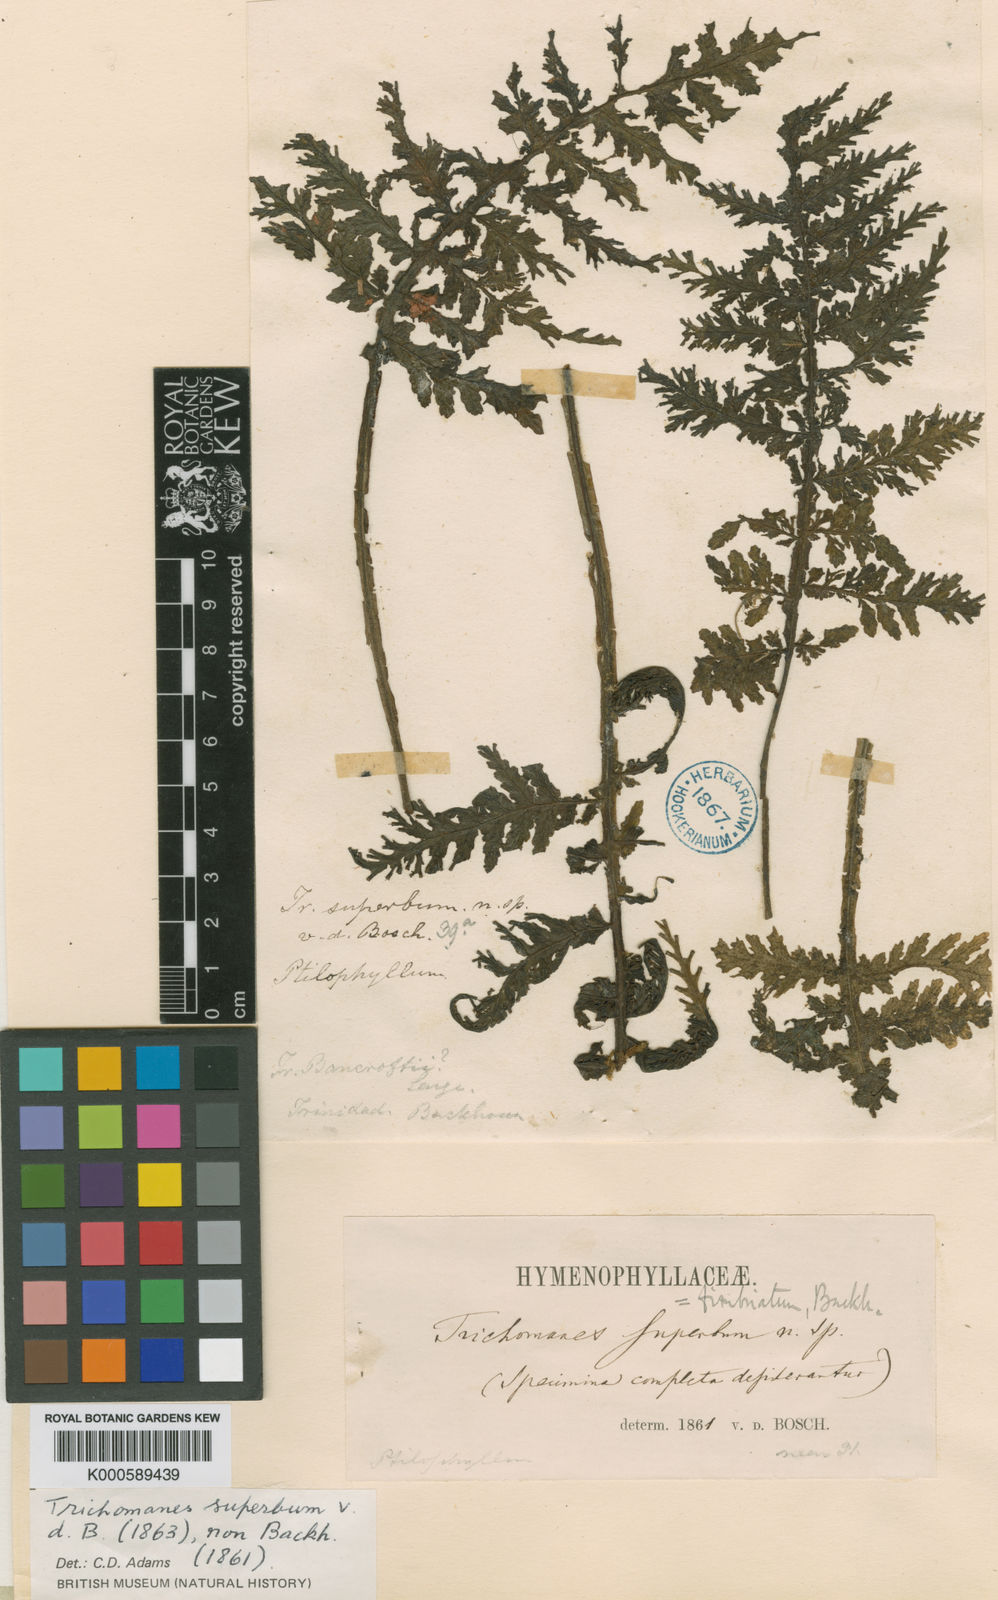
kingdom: Plantae
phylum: Tracheophyta
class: Polypodiopsida
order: Hymenophyllales
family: Hymenophyllaceae
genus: Trichomanes
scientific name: Trichomanes curranii
